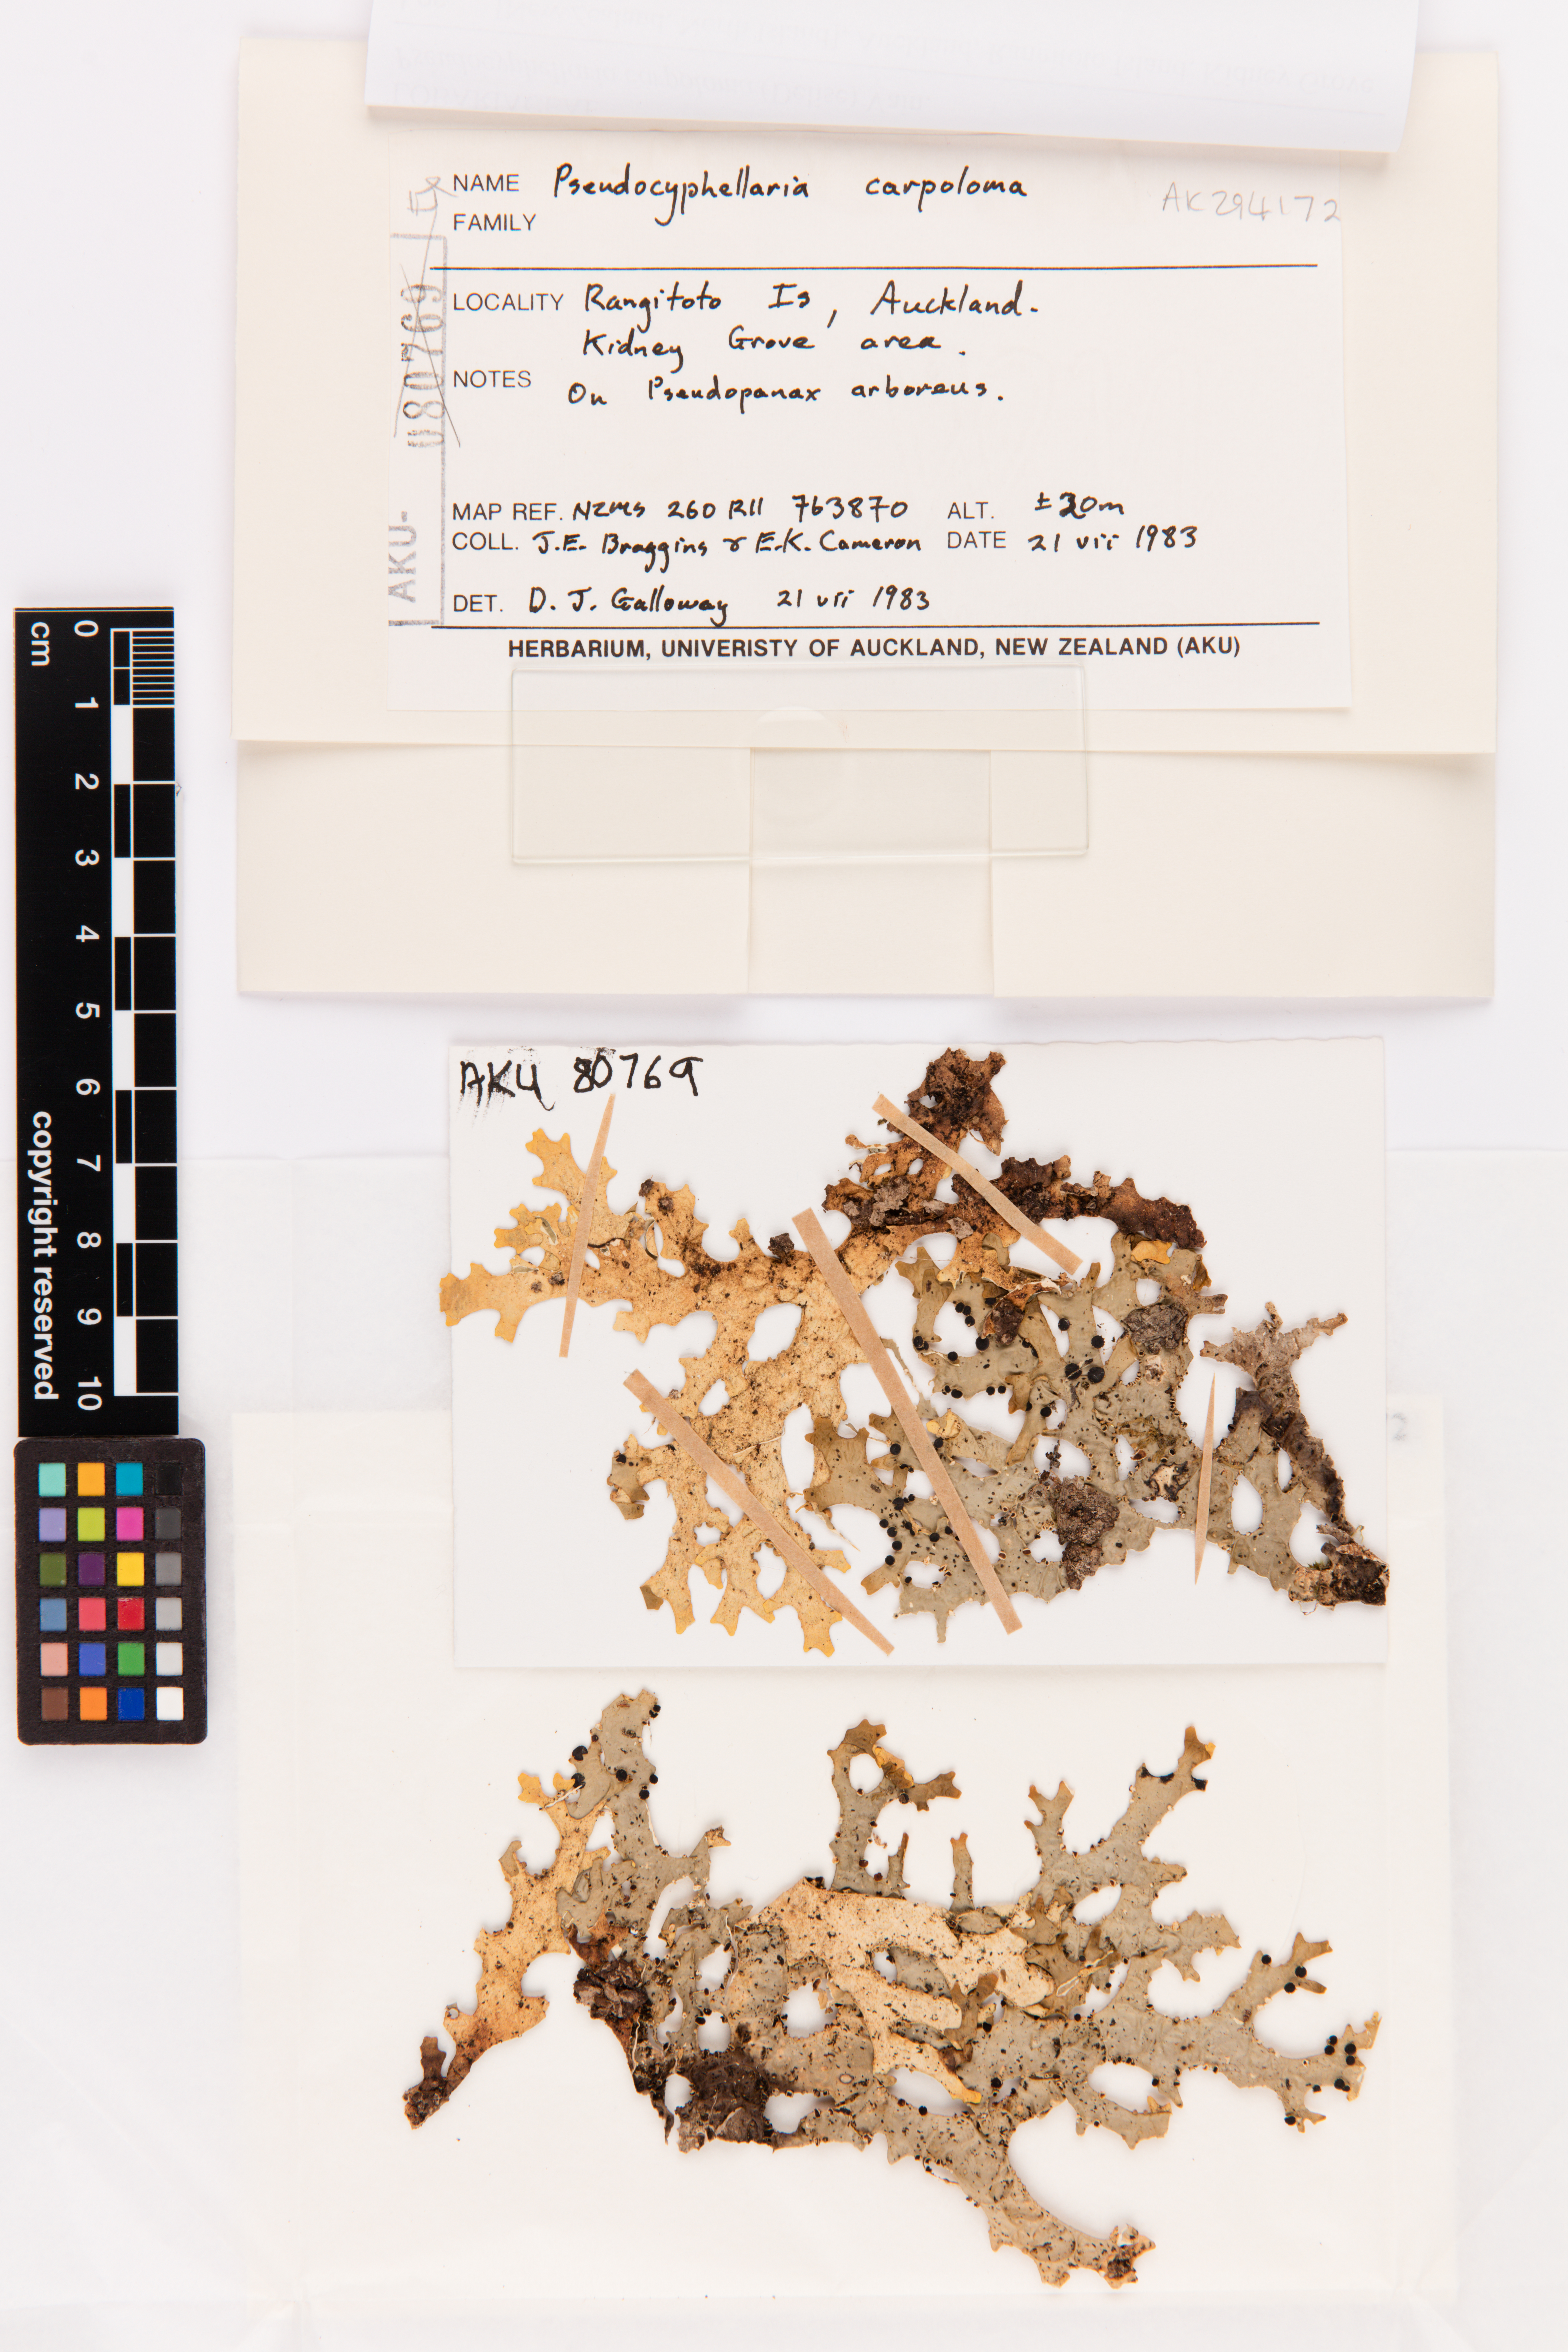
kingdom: Fungi
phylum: Ascomycota
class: Lecanoromycetes
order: Peltigerales
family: Lobariaceae
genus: Pseudocyphellaria
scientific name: Pseudocyphellaria carpoloma
